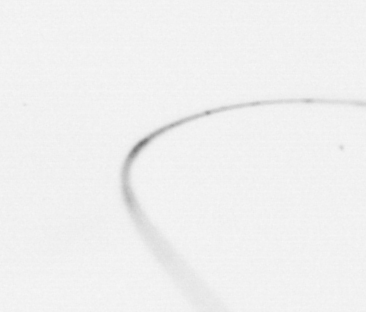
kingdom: Chromista
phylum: Ochrophyta
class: Bacillariophyceae
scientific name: Bacillariophyceae
